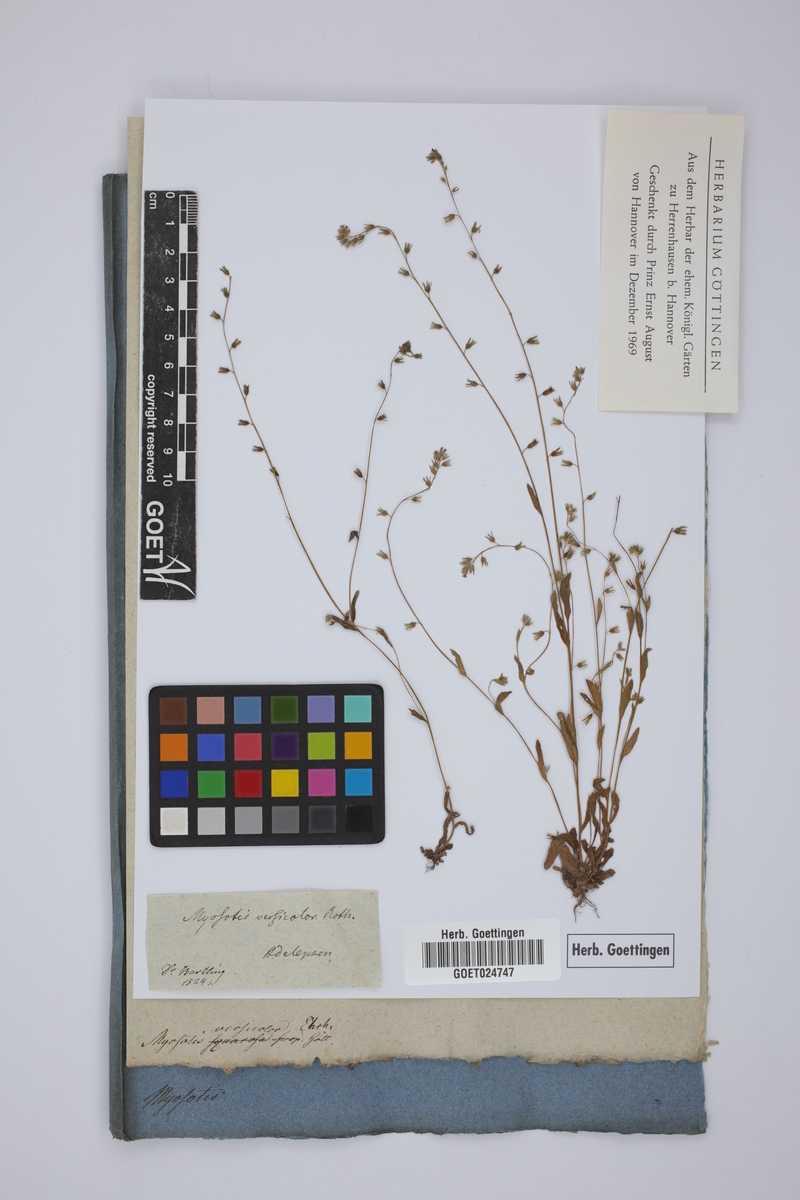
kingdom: Plantae
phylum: Tracheophyta
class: Magnoliopsida
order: Boraginales
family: Boraginaceae
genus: Myosotis
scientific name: Myosotis discolor
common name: Changing forget-me-not
